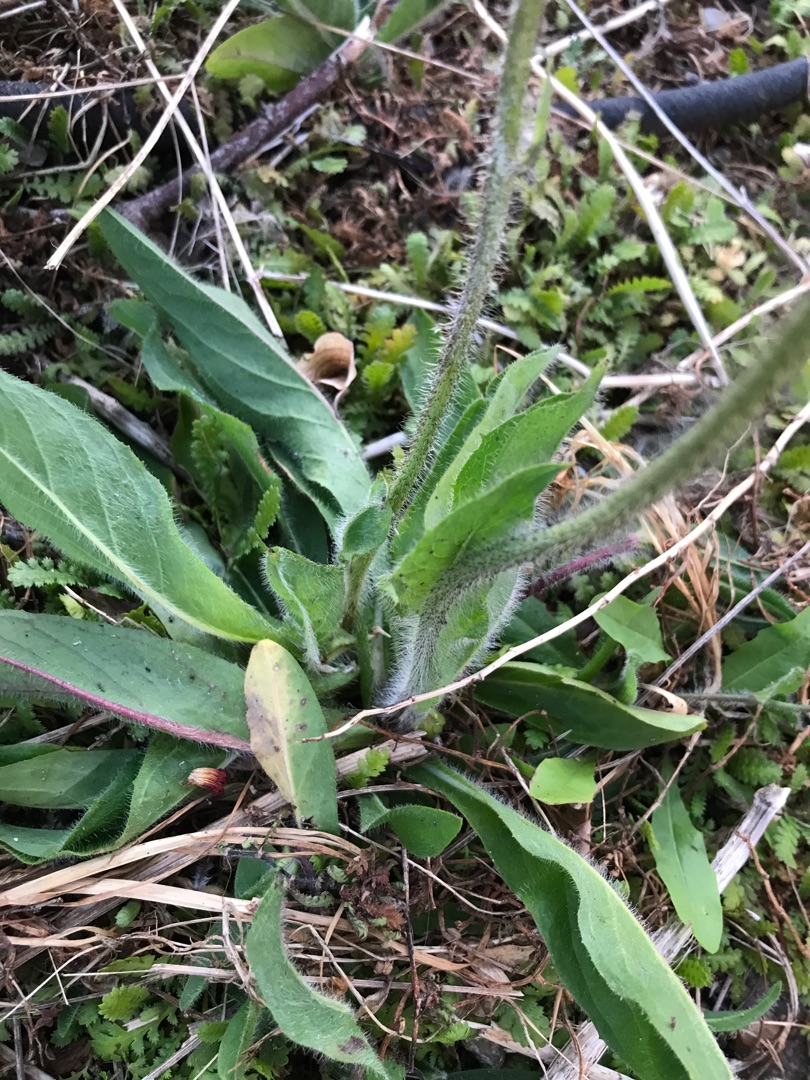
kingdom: Plantae
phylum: Tracheophyta
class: Magnoliopsida
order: Asterales
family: Asteraceae
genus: Pilosella
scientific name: Pilosella aurantiaca
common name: Pomerans-høgeurt
